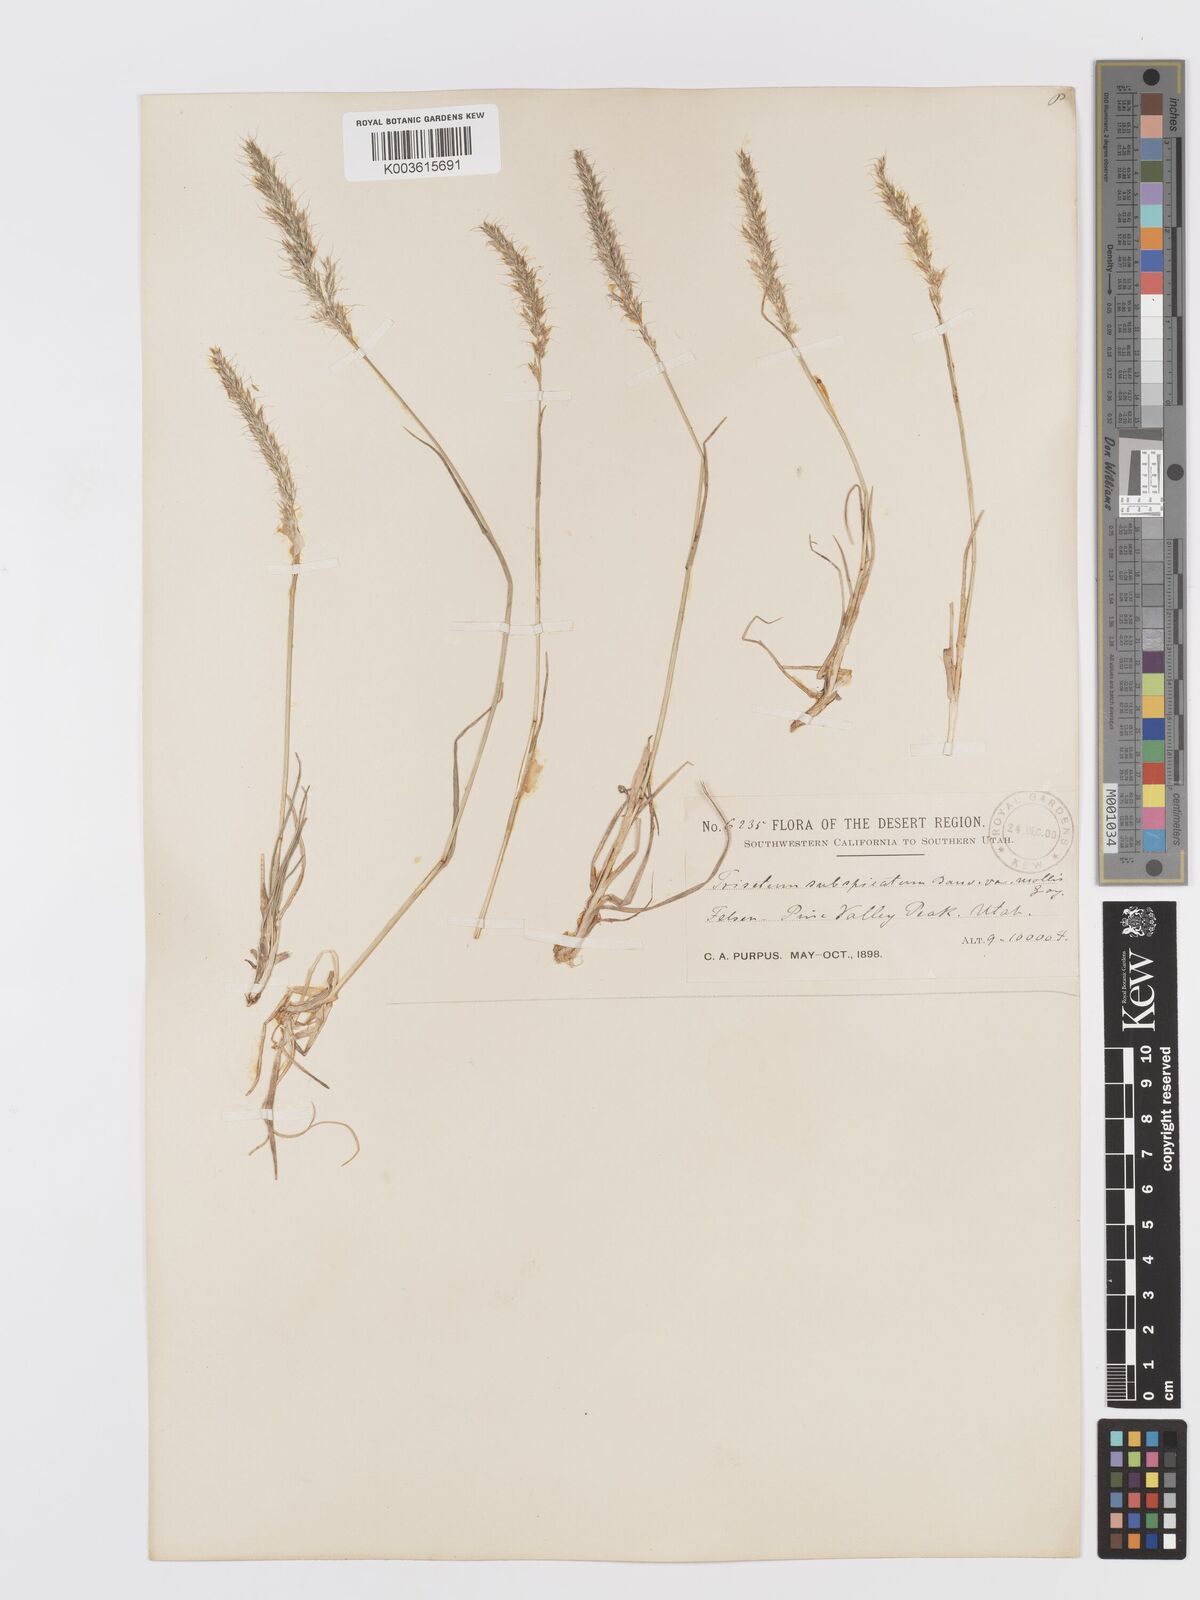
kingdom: Plantae
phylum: Tracheophyta
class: Liliopsida
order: Poales
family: Poaceae
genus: Koeleria
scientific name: Koeleria spicata
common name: Mountain trisetum
